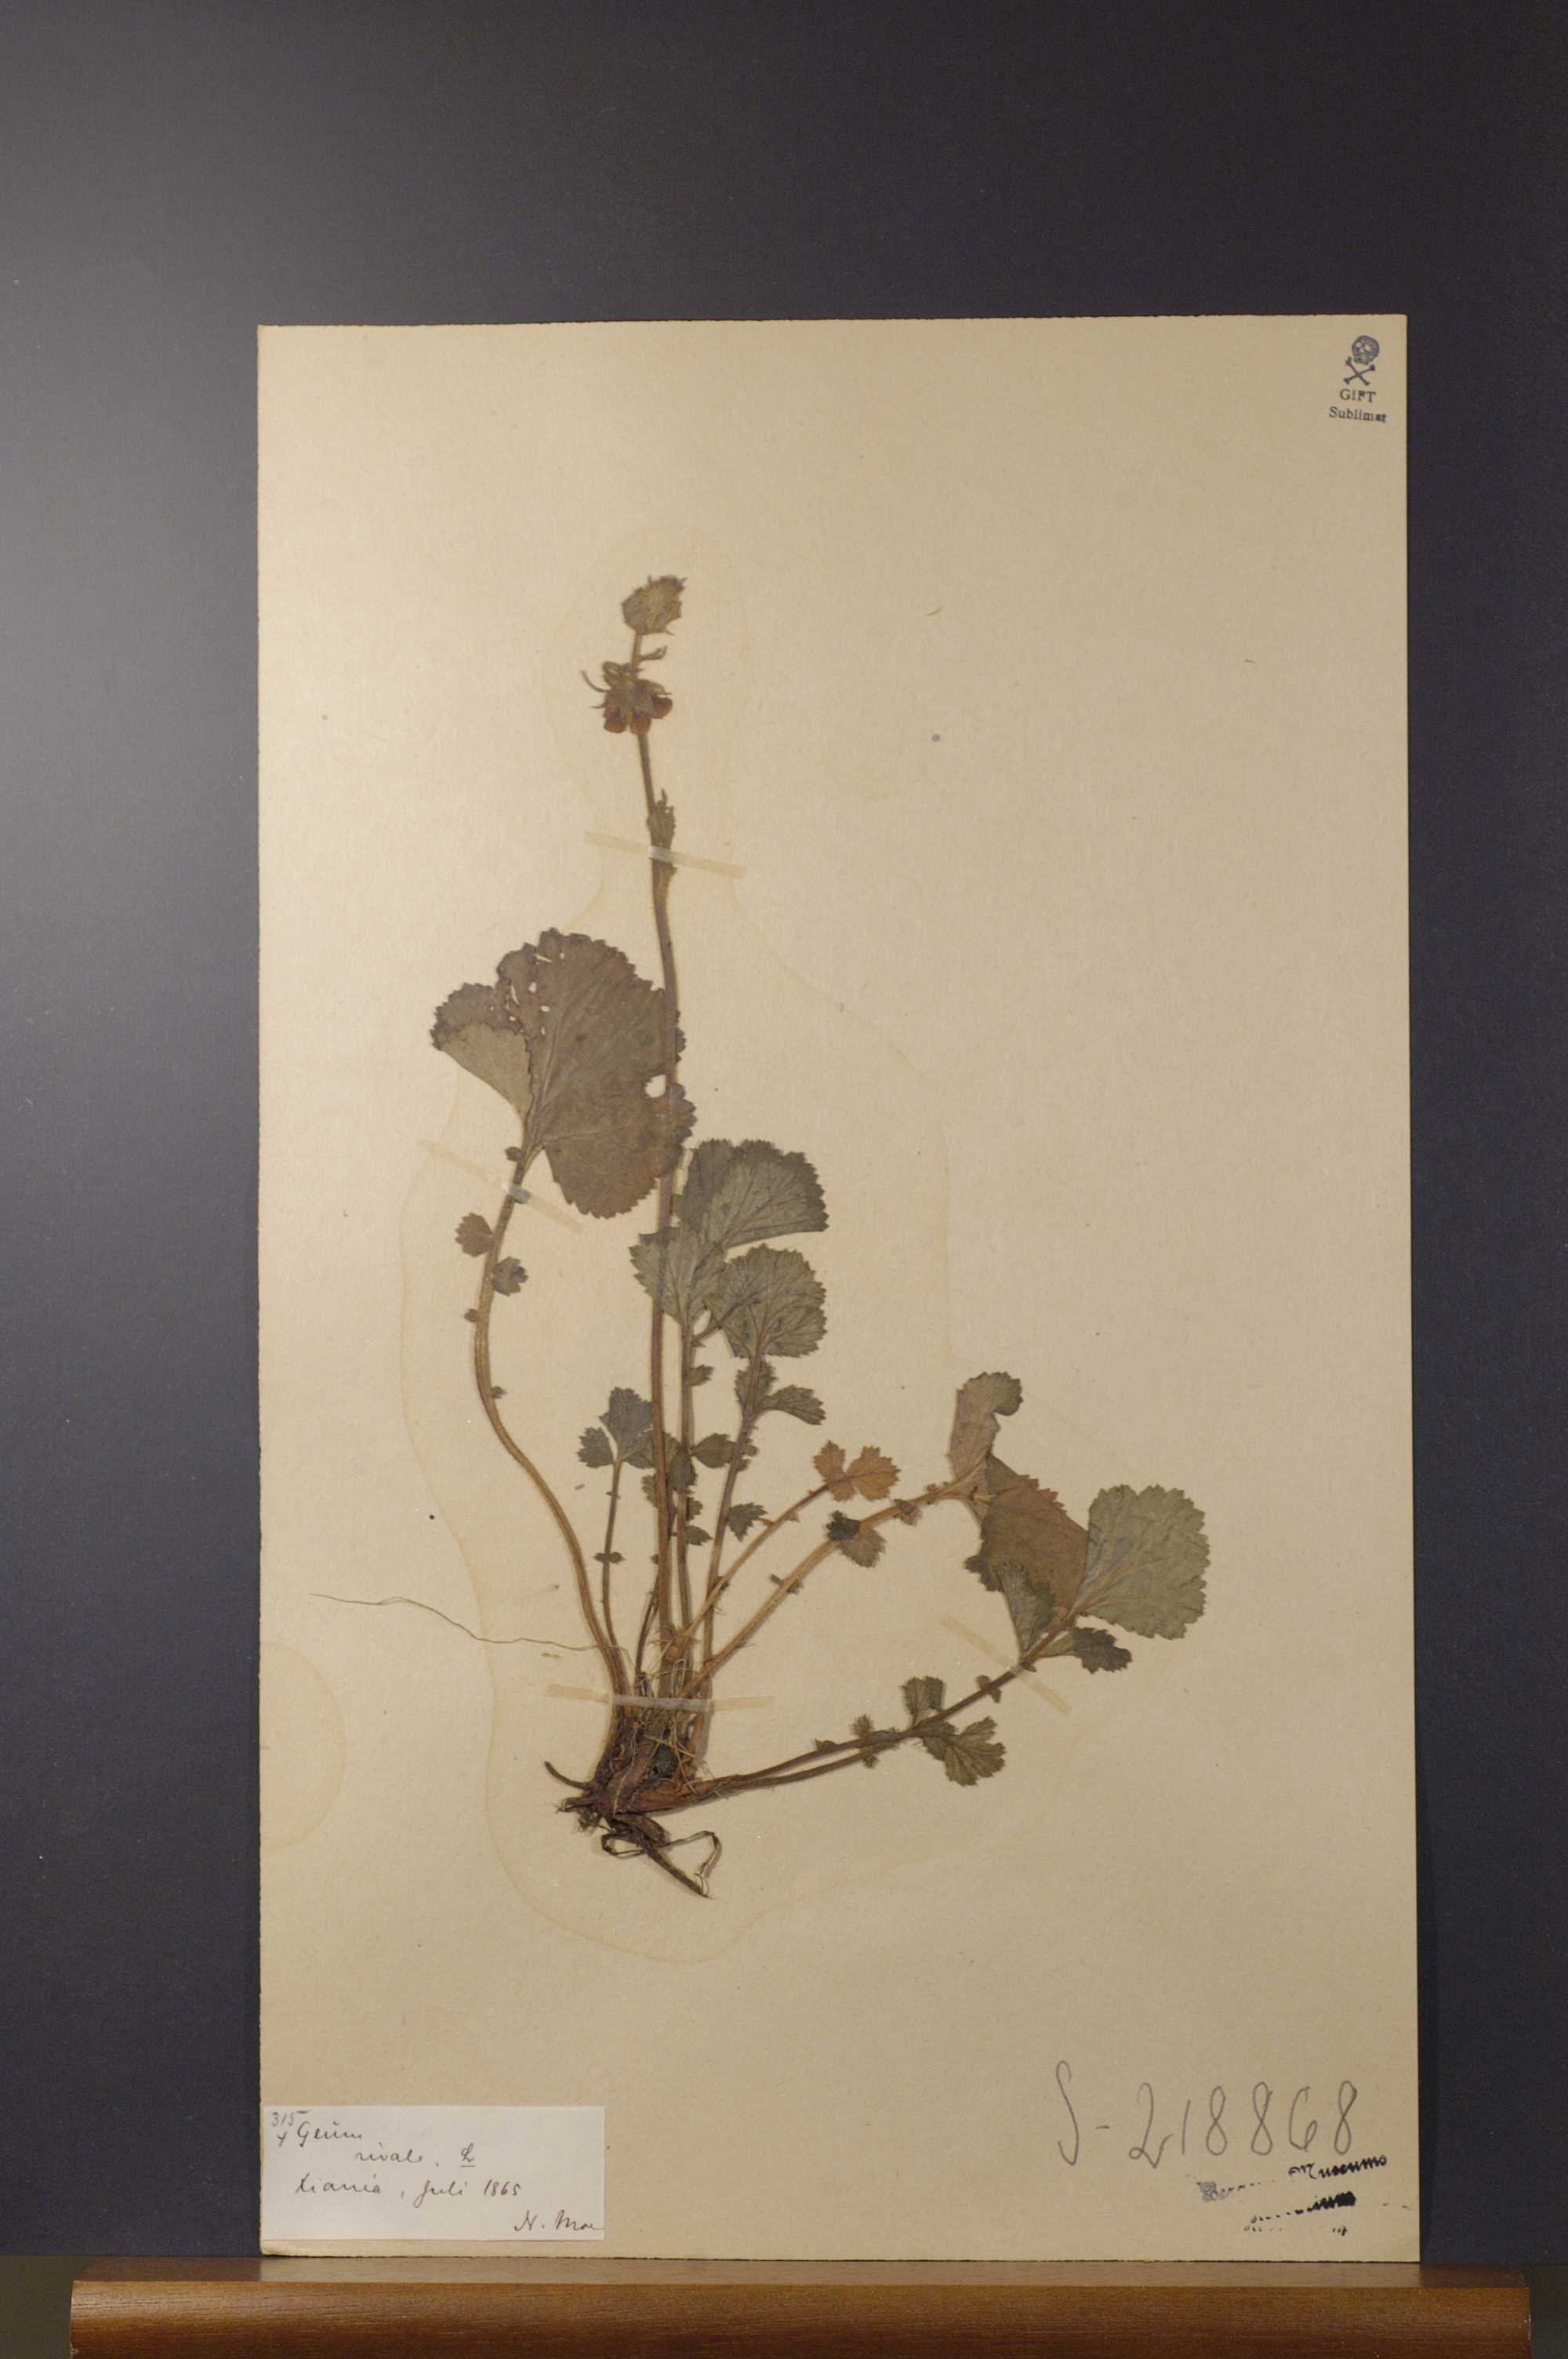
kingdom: Plantae
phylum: Tracheophyta
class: Magnoliopsida
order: Rosales
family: Rosaceae
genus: Geum
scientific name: Geum rivale
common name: Water avens
